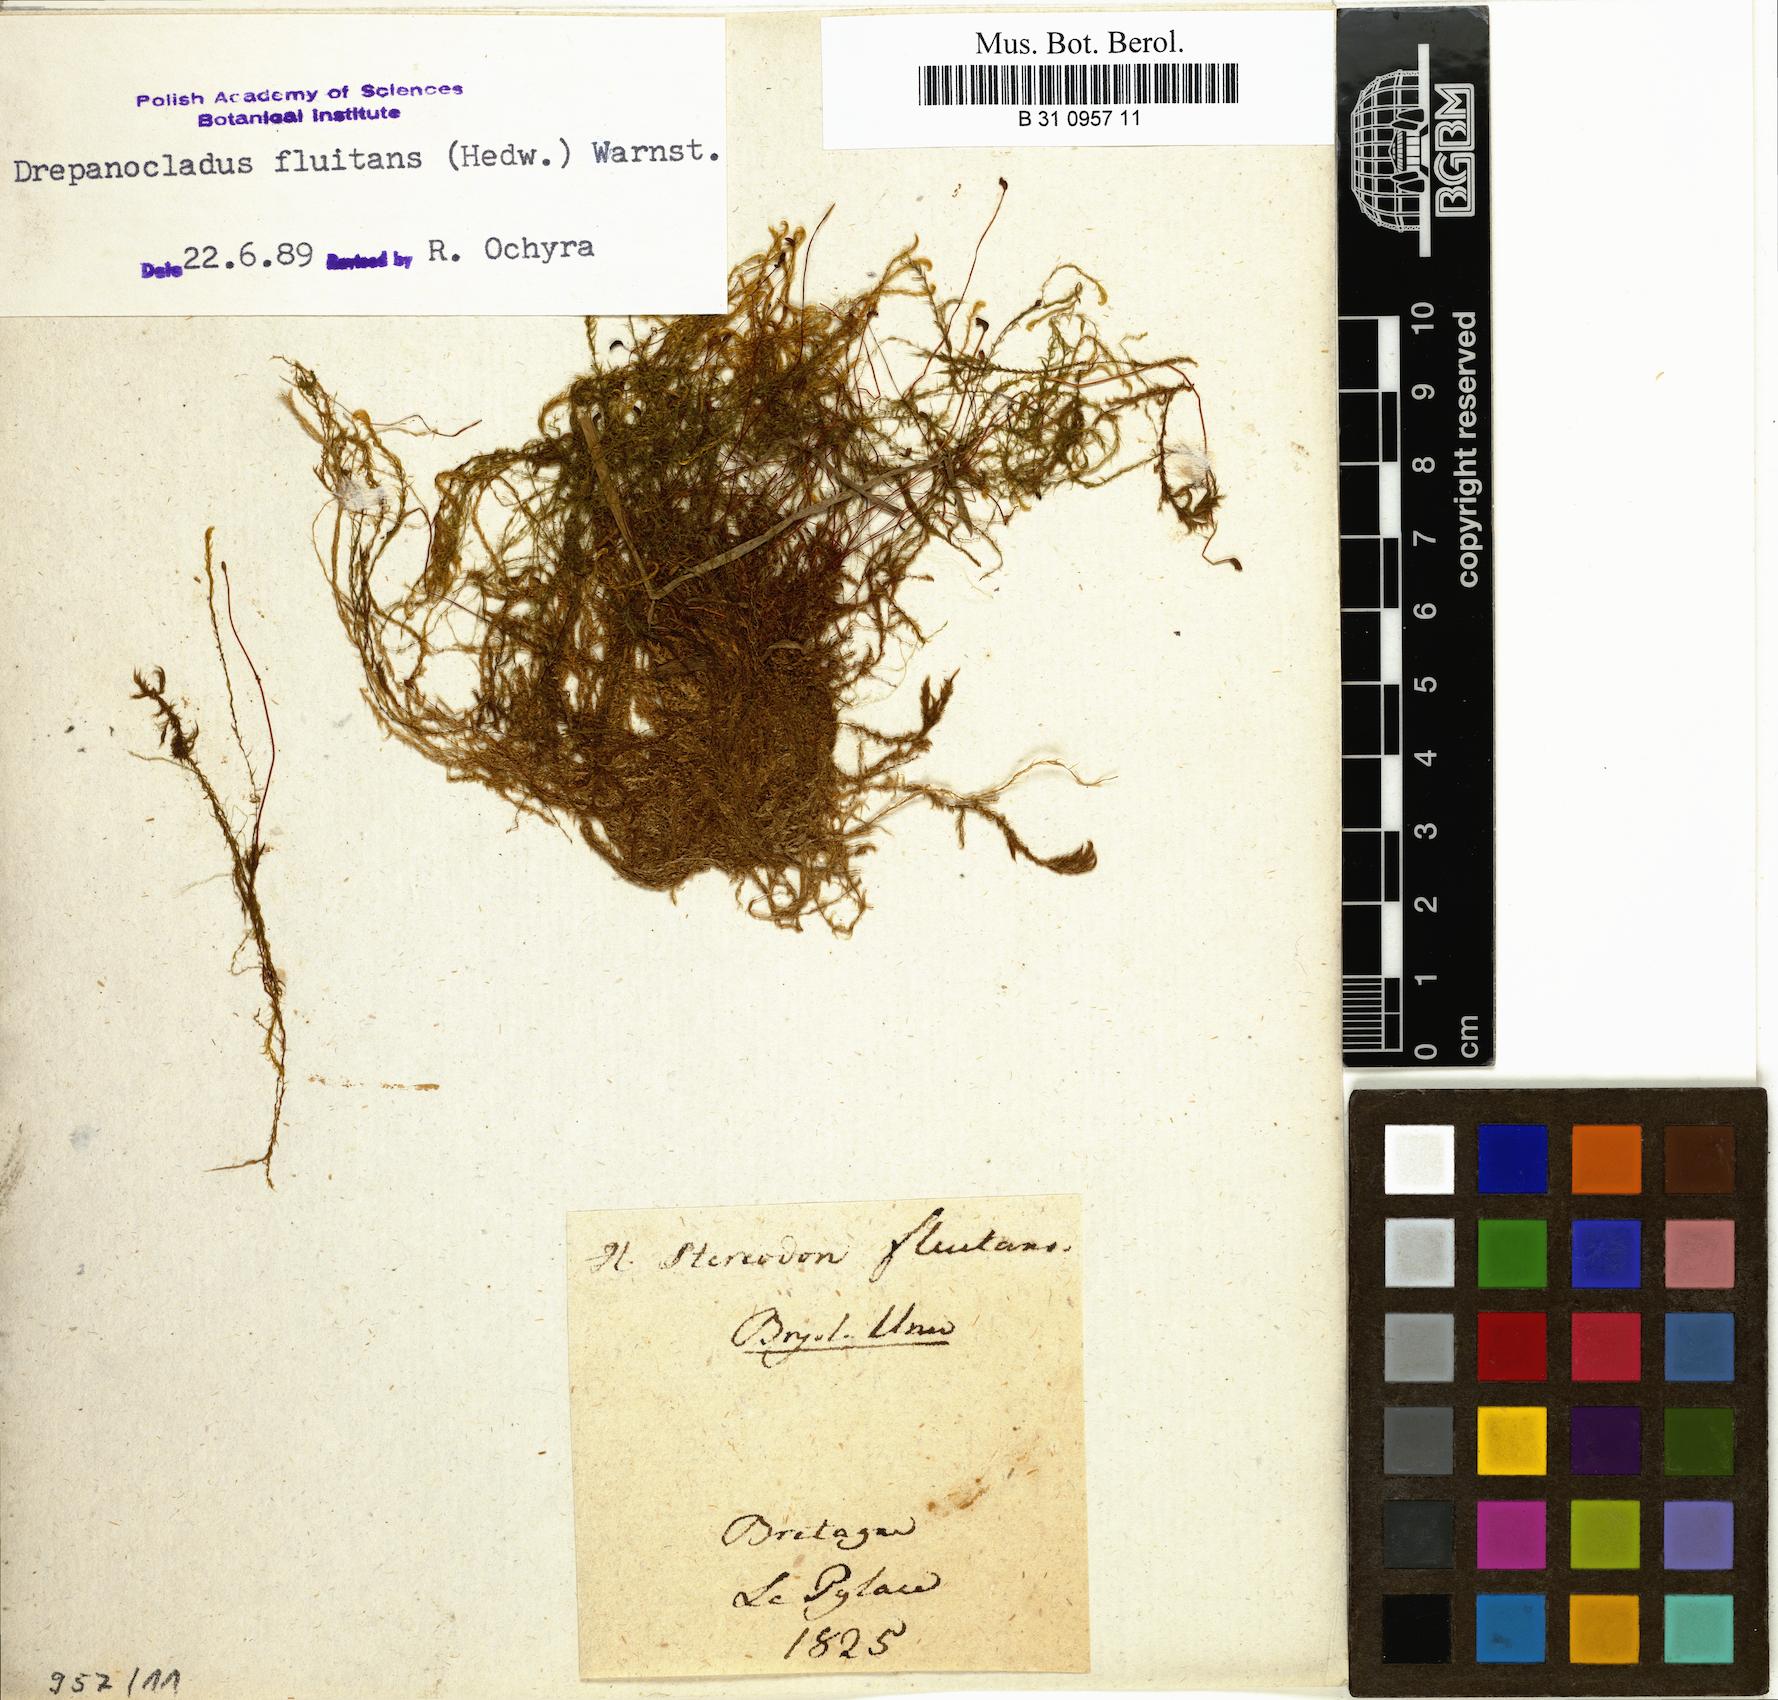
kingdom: Plantae
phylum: Bryophyta
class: Bryopsida
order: Hypnales
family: Calliergonaceae
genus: Warnstorfia
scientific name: Warnstorfia fluitans
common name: Floating hook moss
